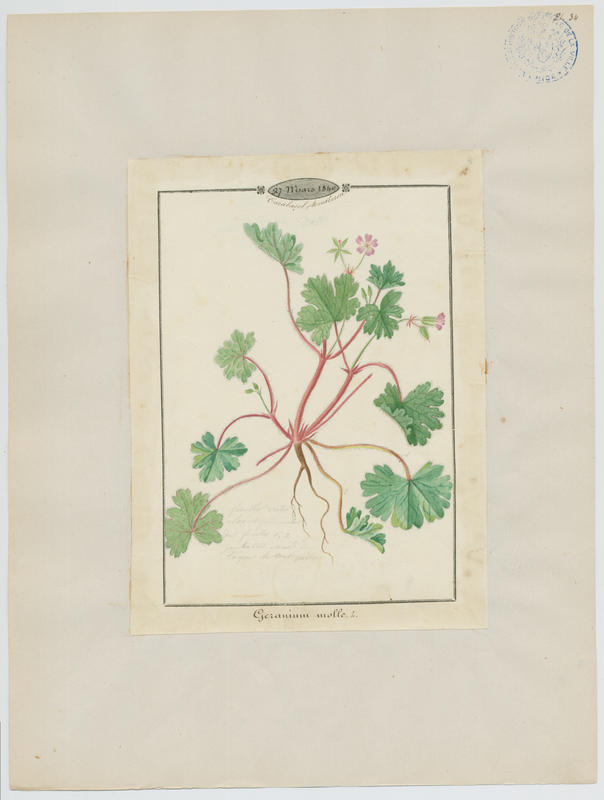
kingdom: Plantae
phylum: Tracheophyta
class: Magnoliopsida
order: Geraniales
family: Geraniaceae
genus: Geranium
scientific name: Geranium molle
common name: Dove's-foot crane's-bill
